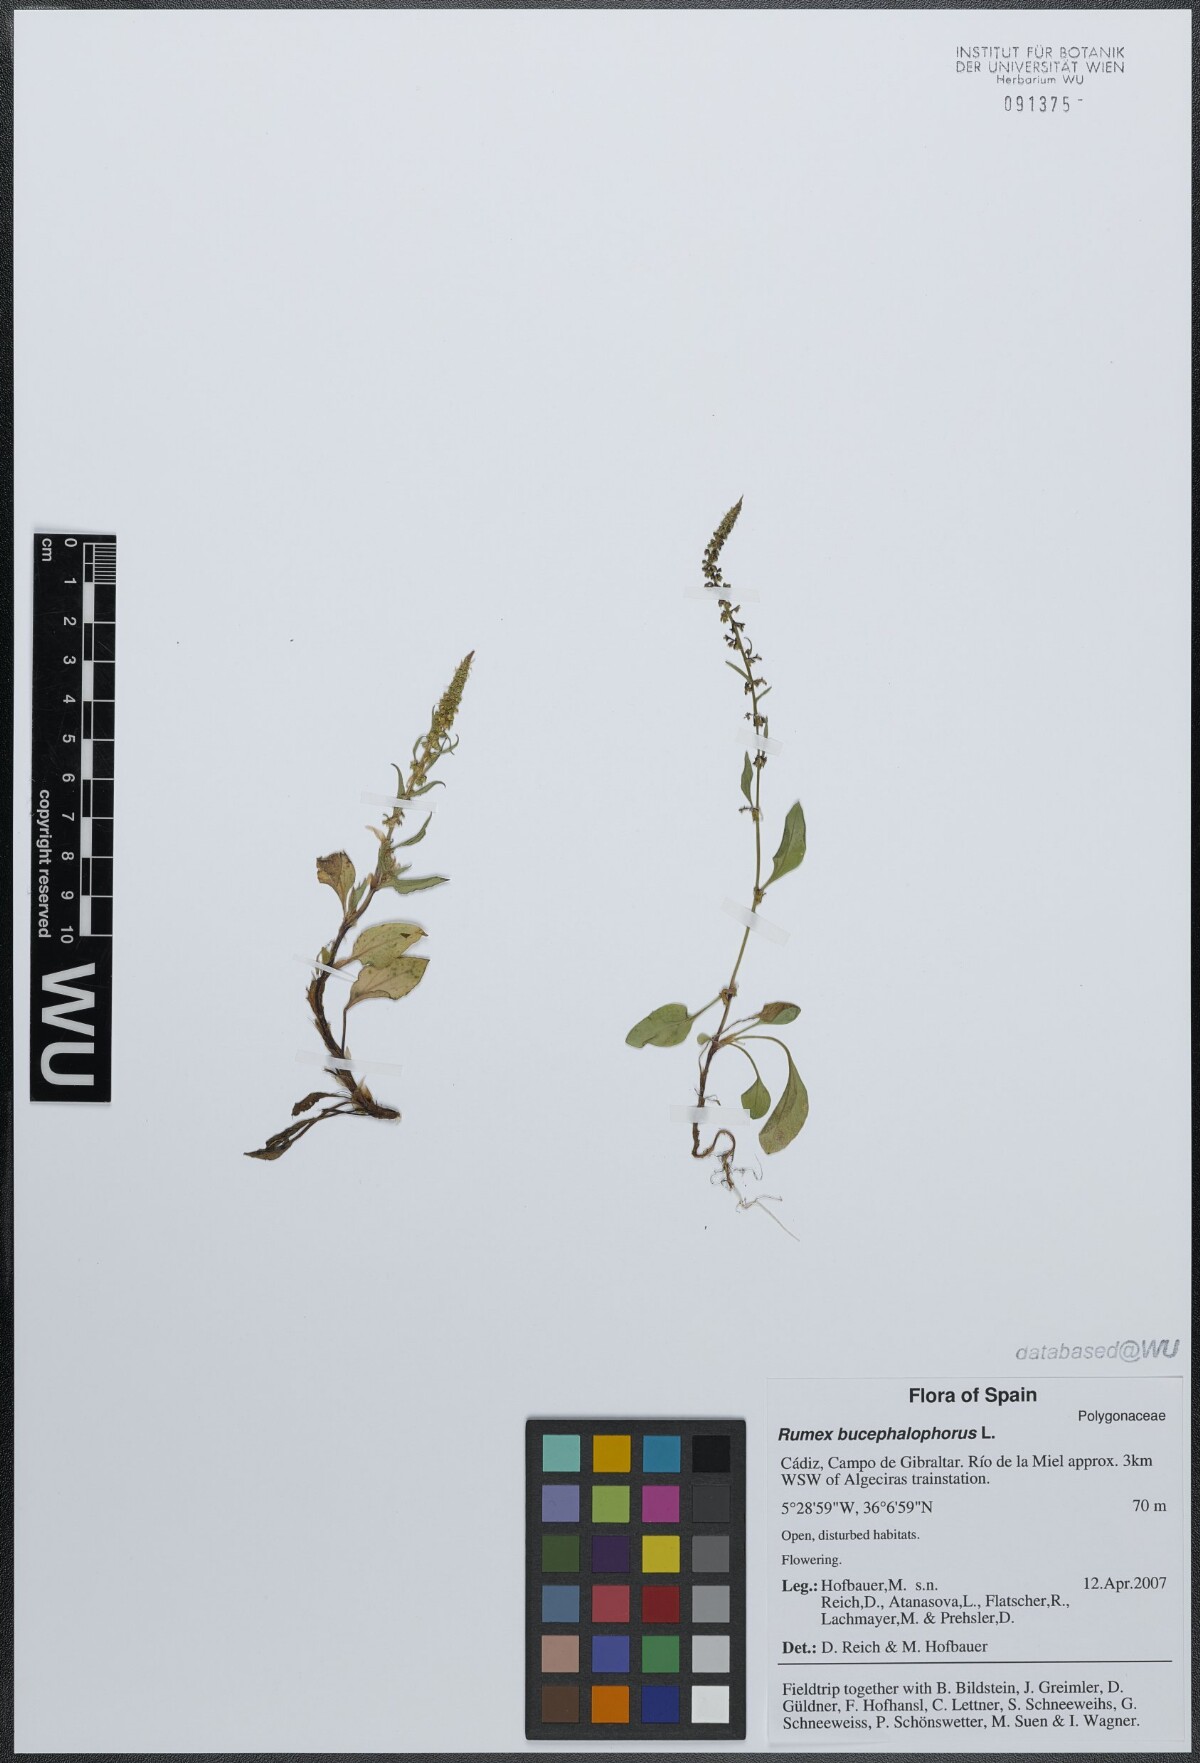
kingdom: Plantae
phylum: Tracheophyta
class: Magnoliopsida
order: Caryophyllales
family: Polygonaceae
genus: Rumex
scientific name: Rumex bucephalophorus
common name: Red dock
